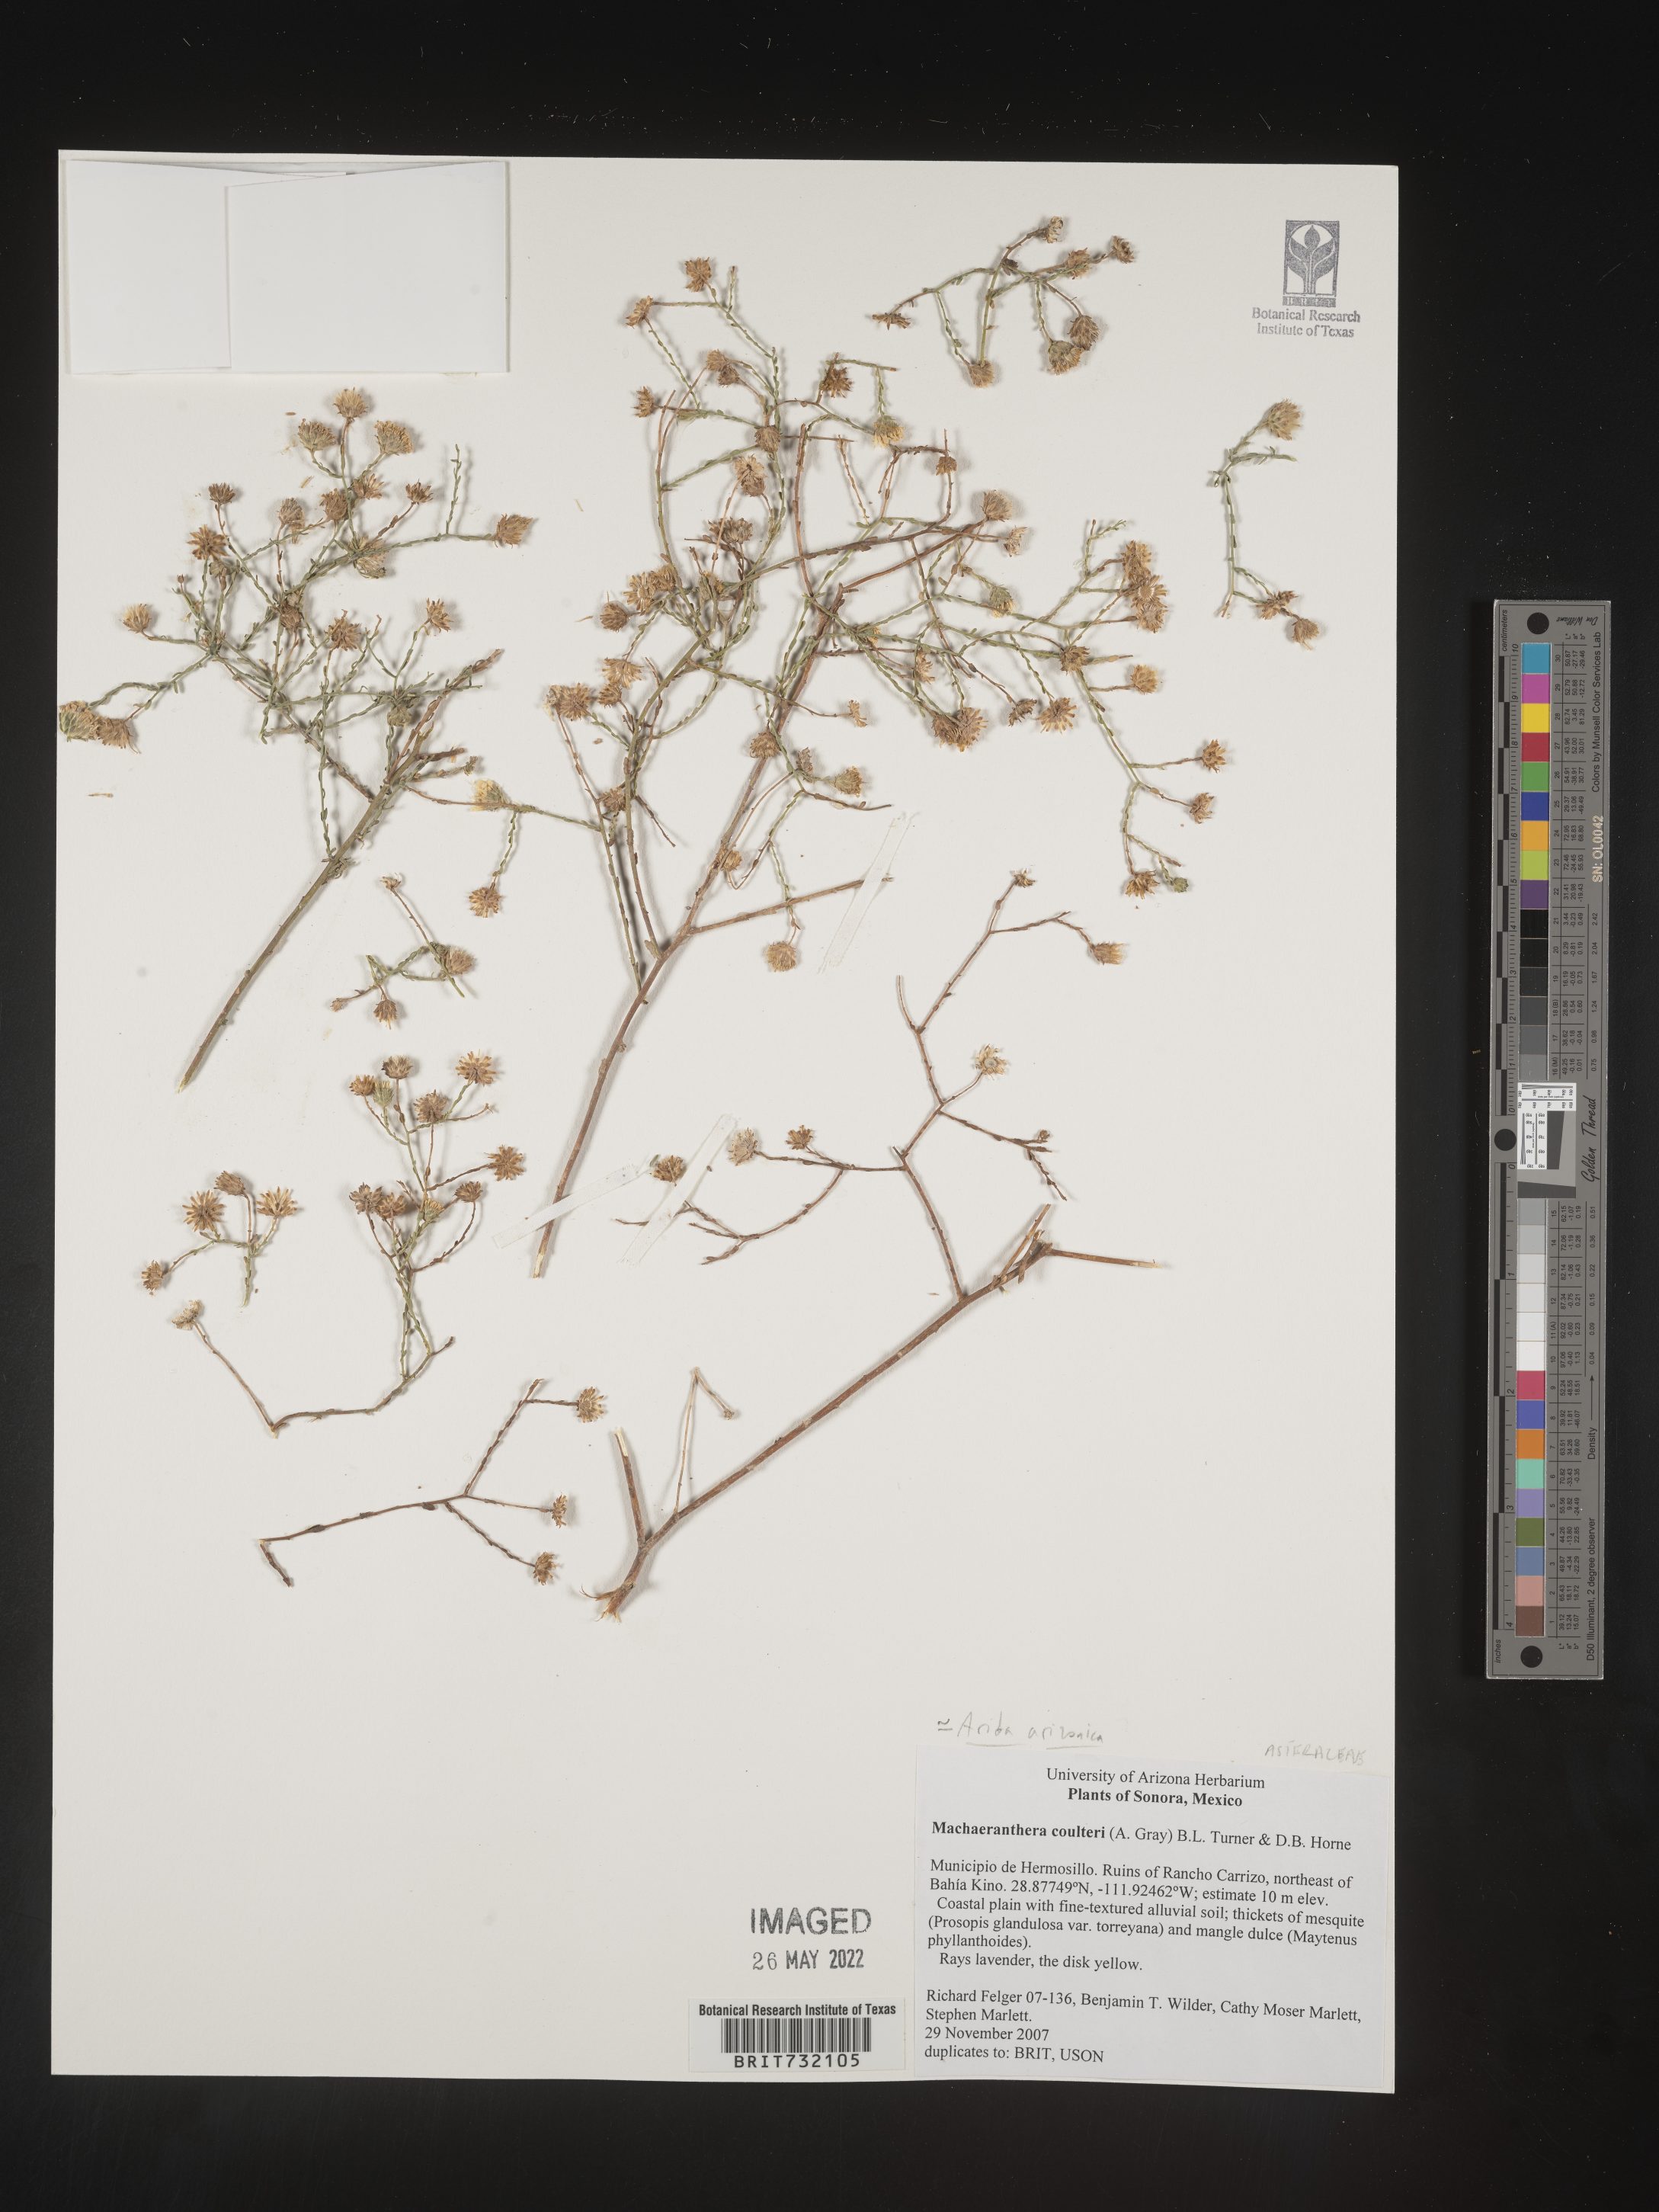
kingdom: Plantae
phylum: Tracheophyta
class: Magnoliopsida
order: Asterales
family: Asteraceae
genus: Leucosyris
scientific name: Leucosyris arida
